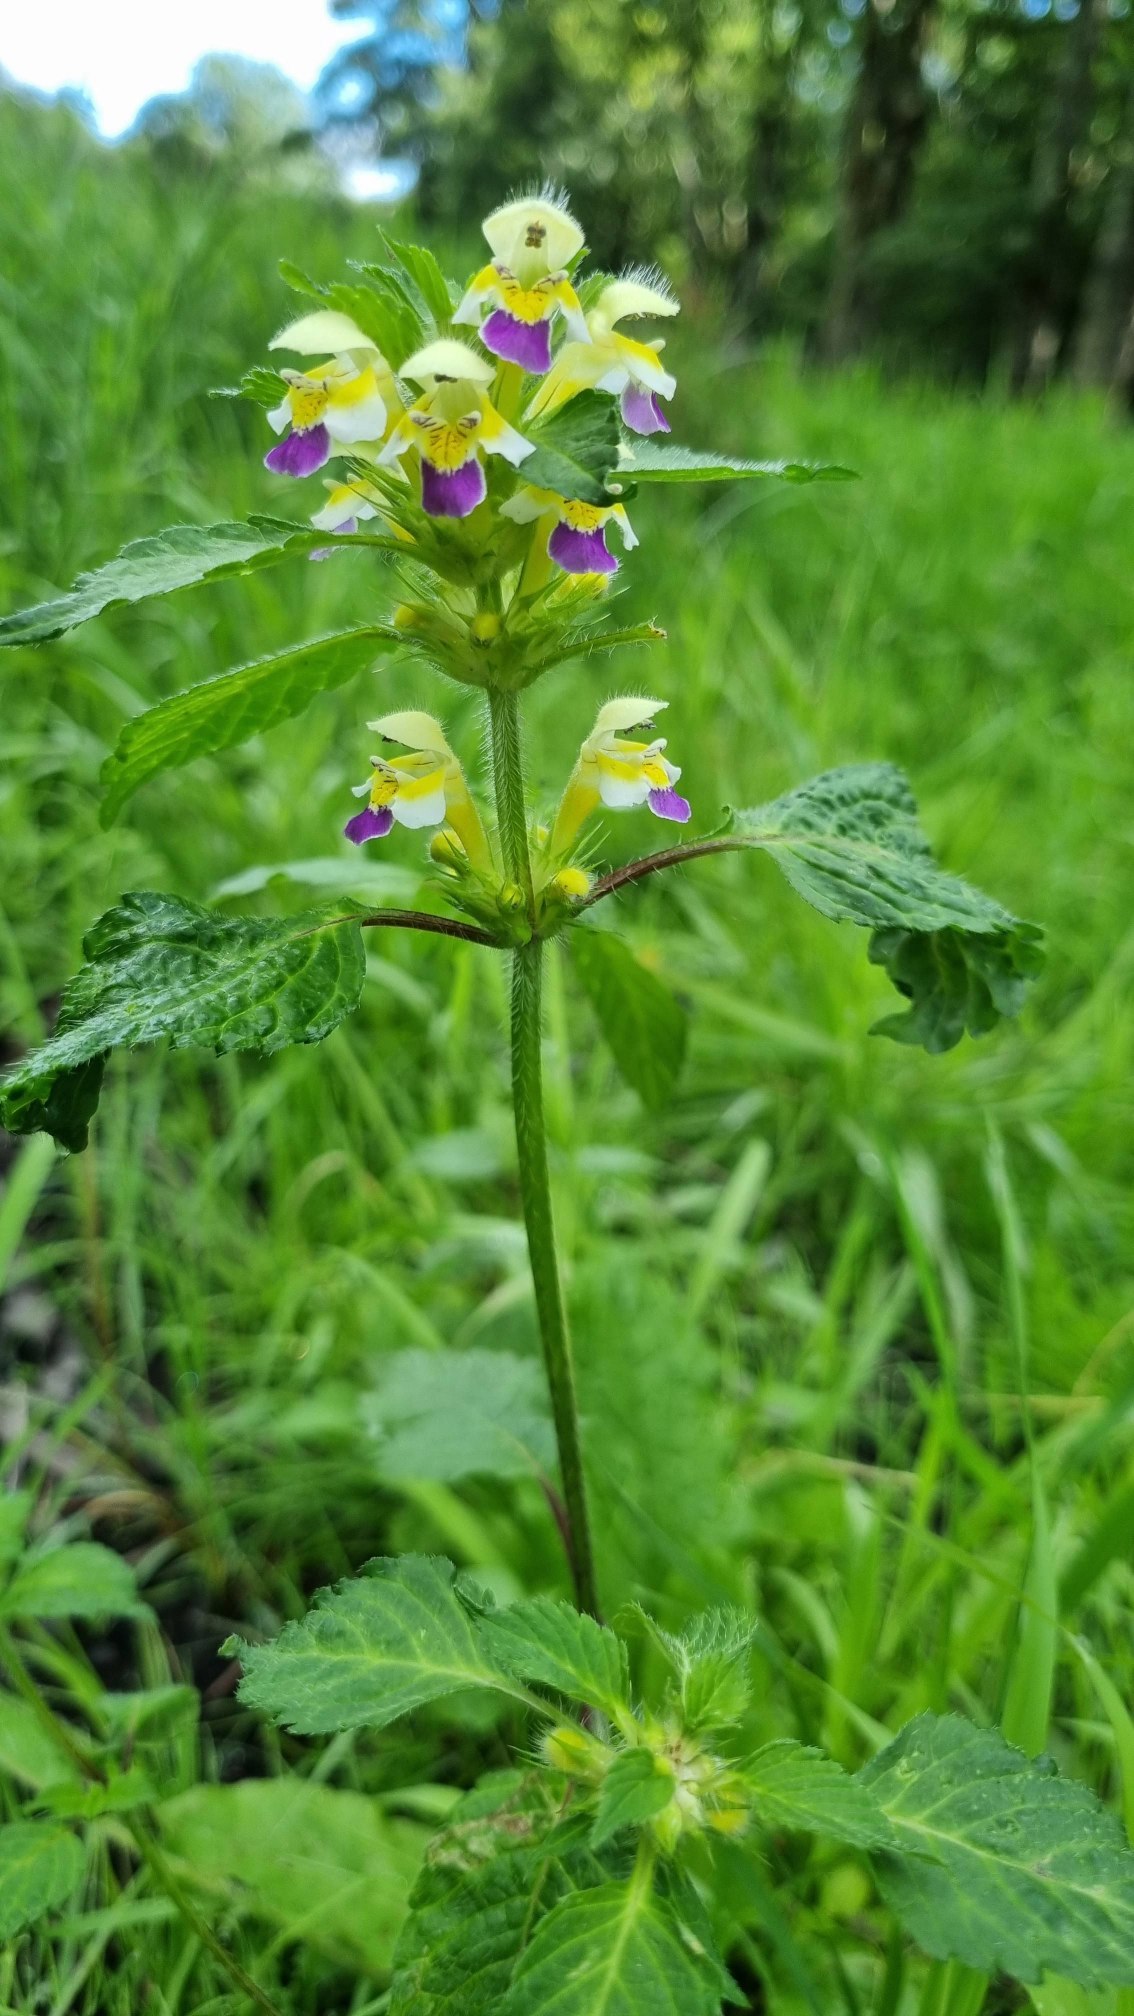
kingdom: Plantae
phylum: Tracheophyta
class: Magnoliopsida
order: Lamiales
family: Lamiaceae
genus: Galeopsis
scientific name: Galeopsis speciosa
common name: Hamp-hanekro
